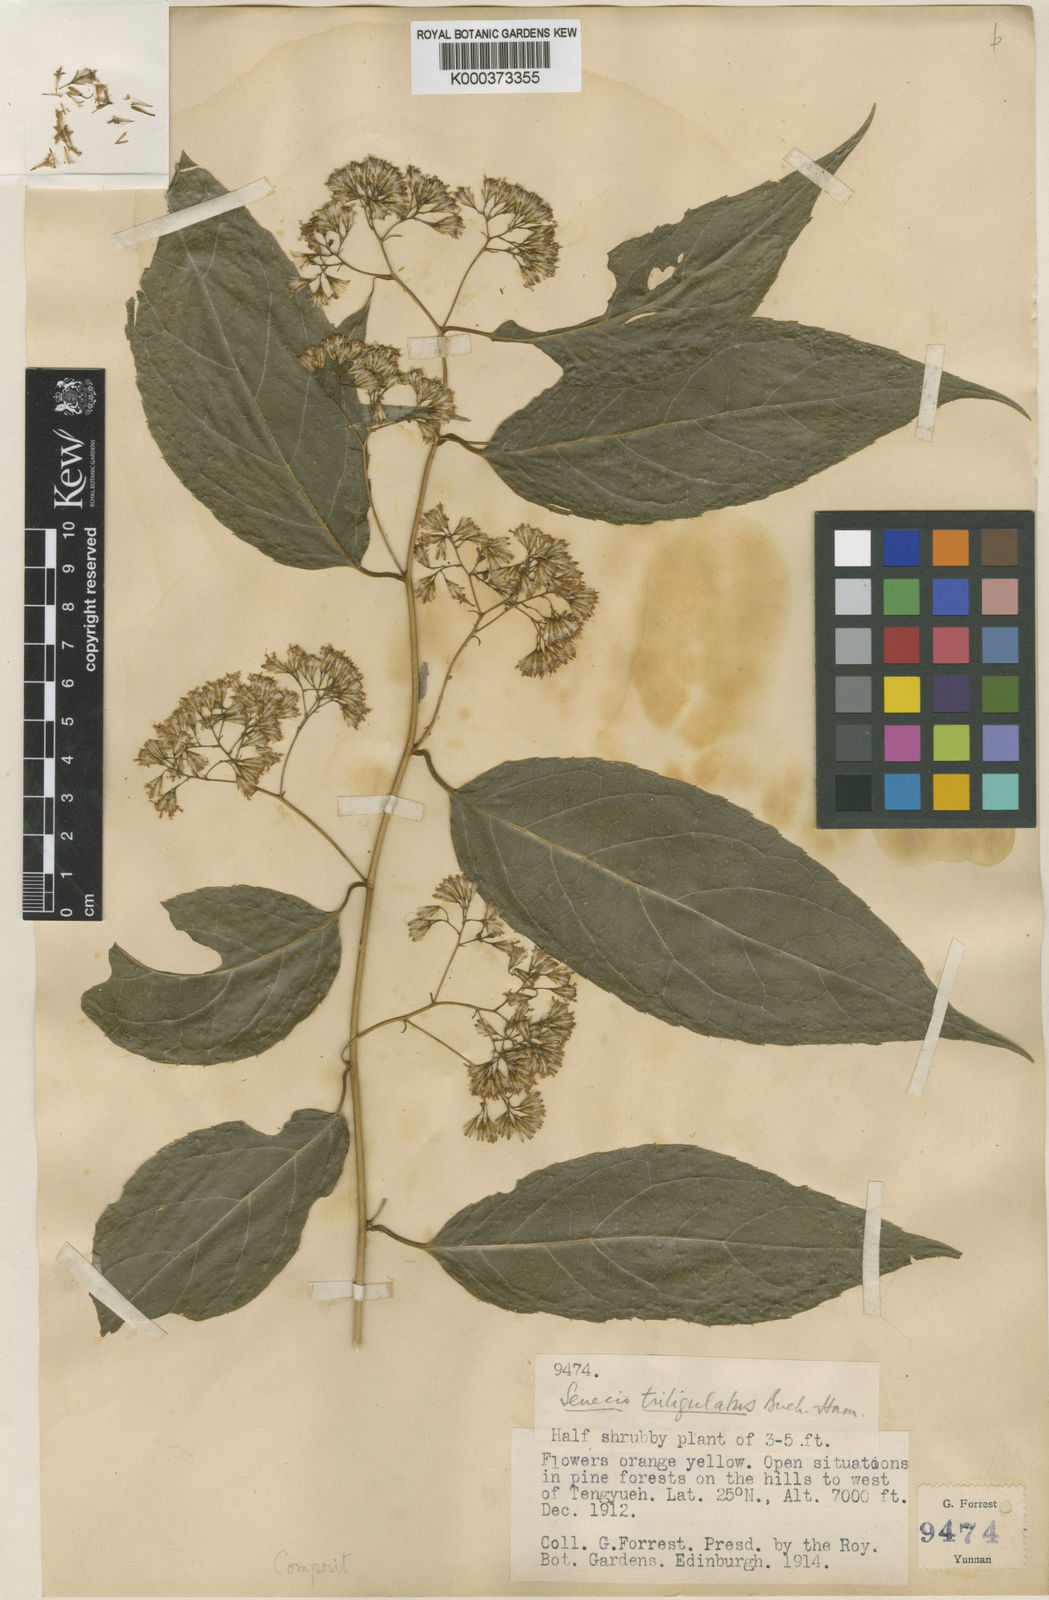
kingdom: Plantae
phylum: Tracheophyta
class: Magnoliopsida
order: Asterales
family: Asteraceae
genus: Synotis
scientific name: Synotis triligulata
